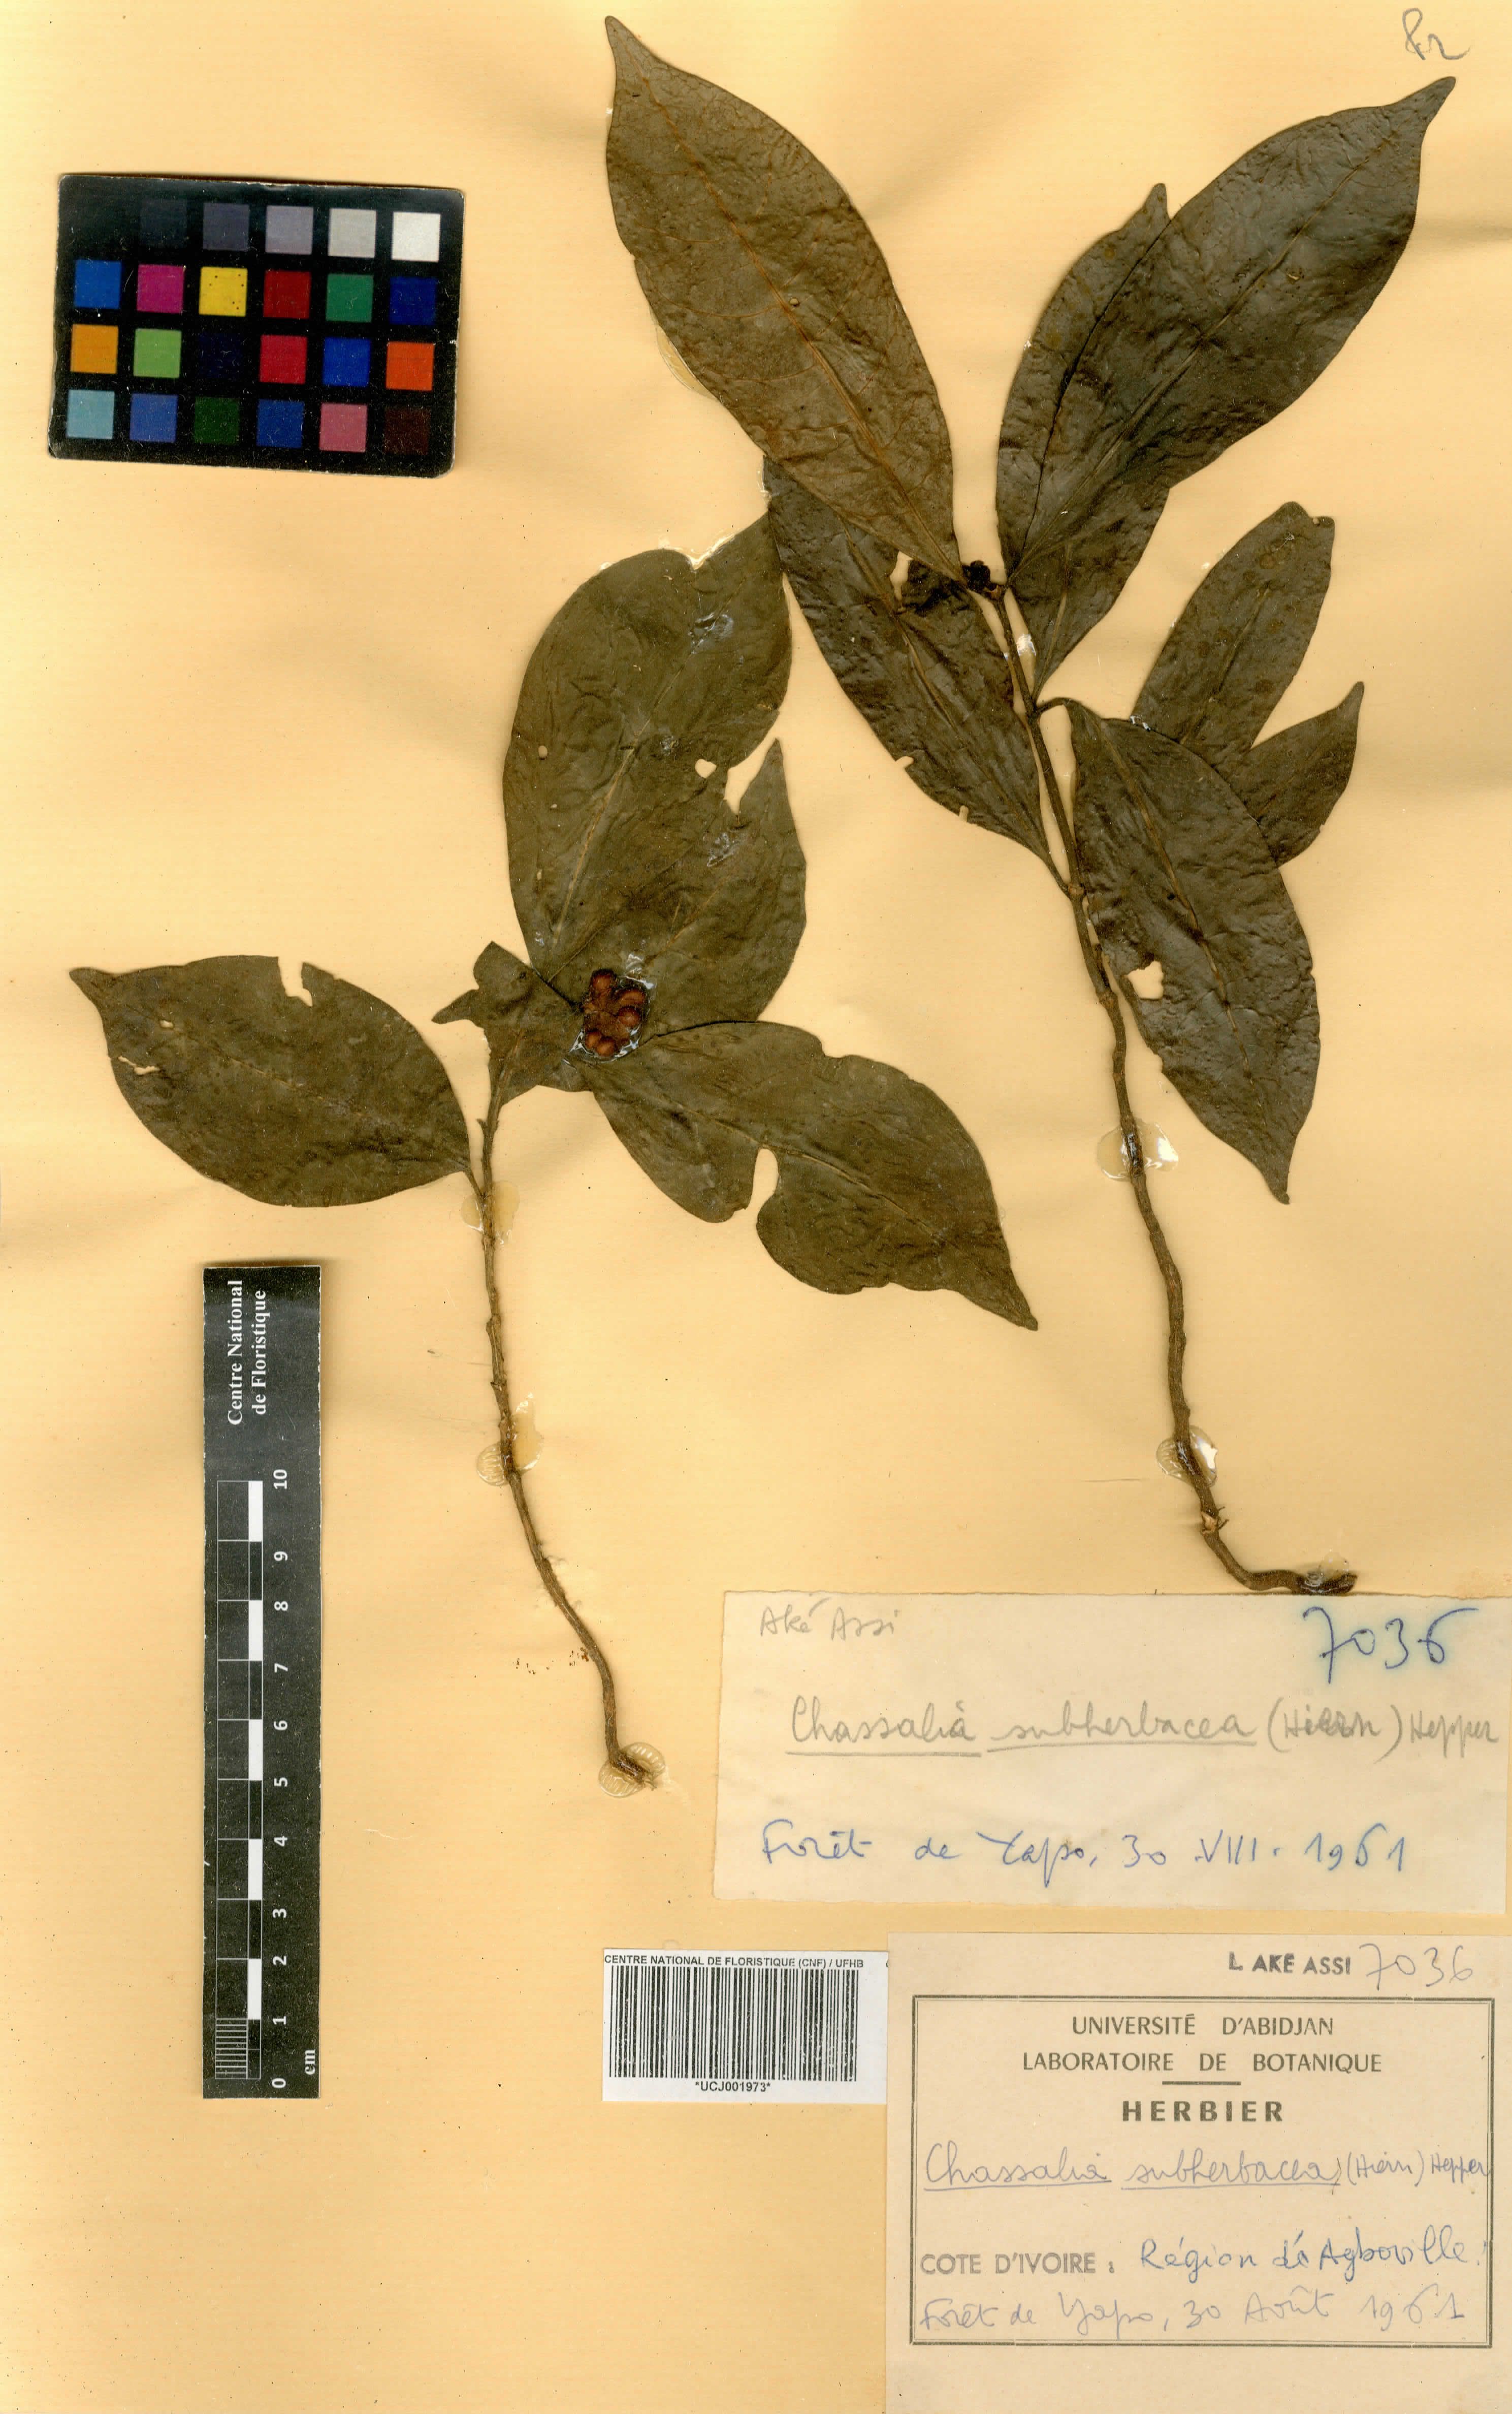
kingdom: Plantae
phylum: Tracheophyta
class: Magnoliopsida
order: Gentianales
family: Rubiaceae
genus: Chassalia
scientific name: Chassalia subherbacea
